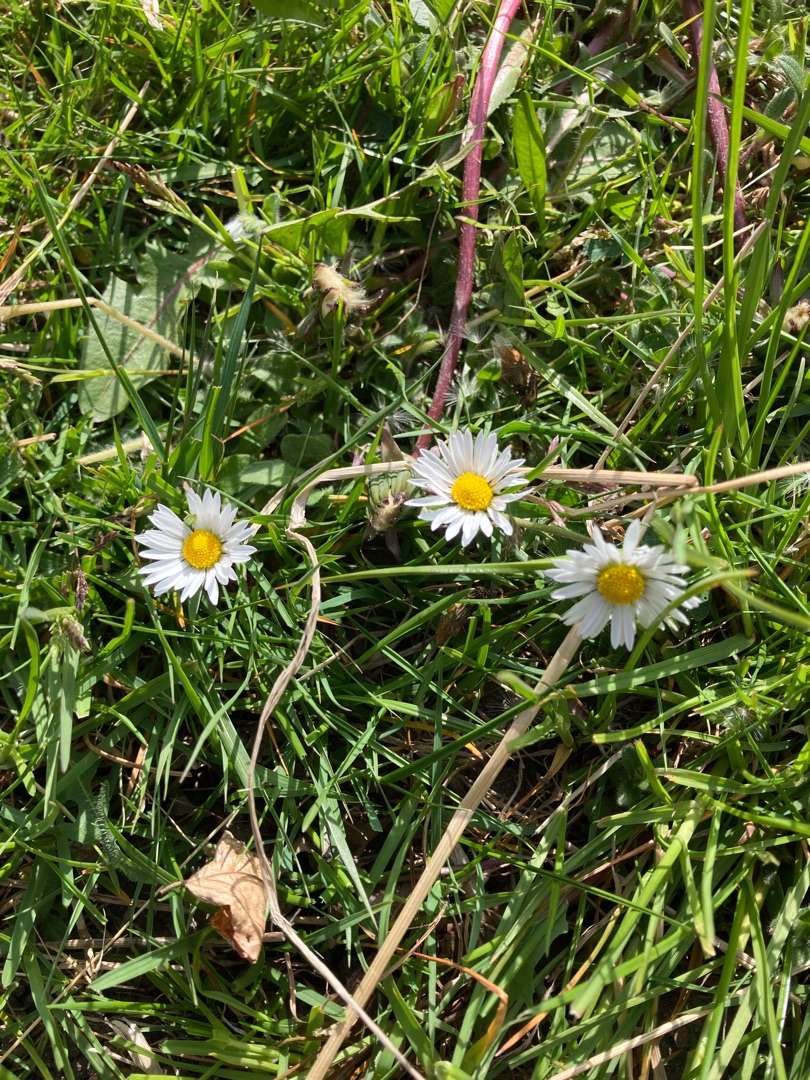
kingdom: Plantae
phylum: Tracheophyta
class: Magnoliopsida
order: Asterales
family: Asteraceae
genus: Bellis
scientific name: Bellis perennis
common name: Tusindfryd
